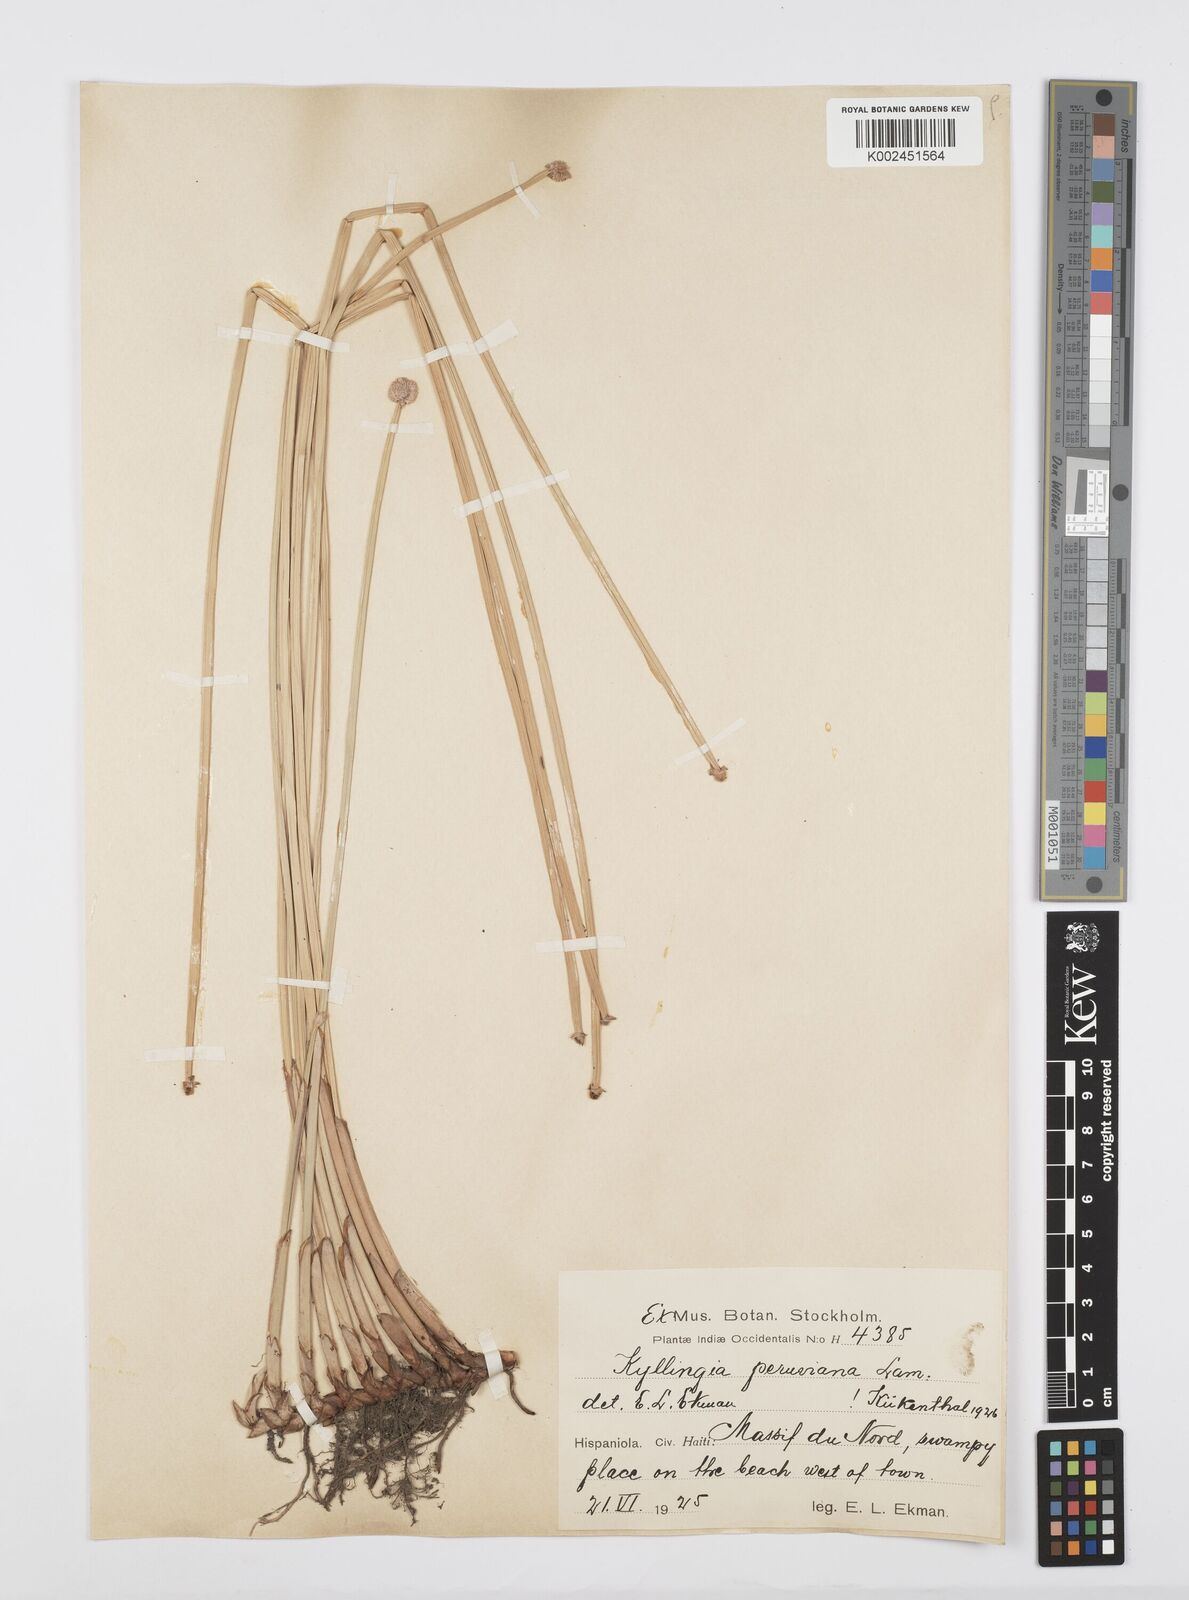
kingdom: Plantae
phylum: Tracheophyta
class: Liliopsida
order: Poales
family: Cyperaceae
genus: Cyperus
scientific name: Cyperus obtusatus
